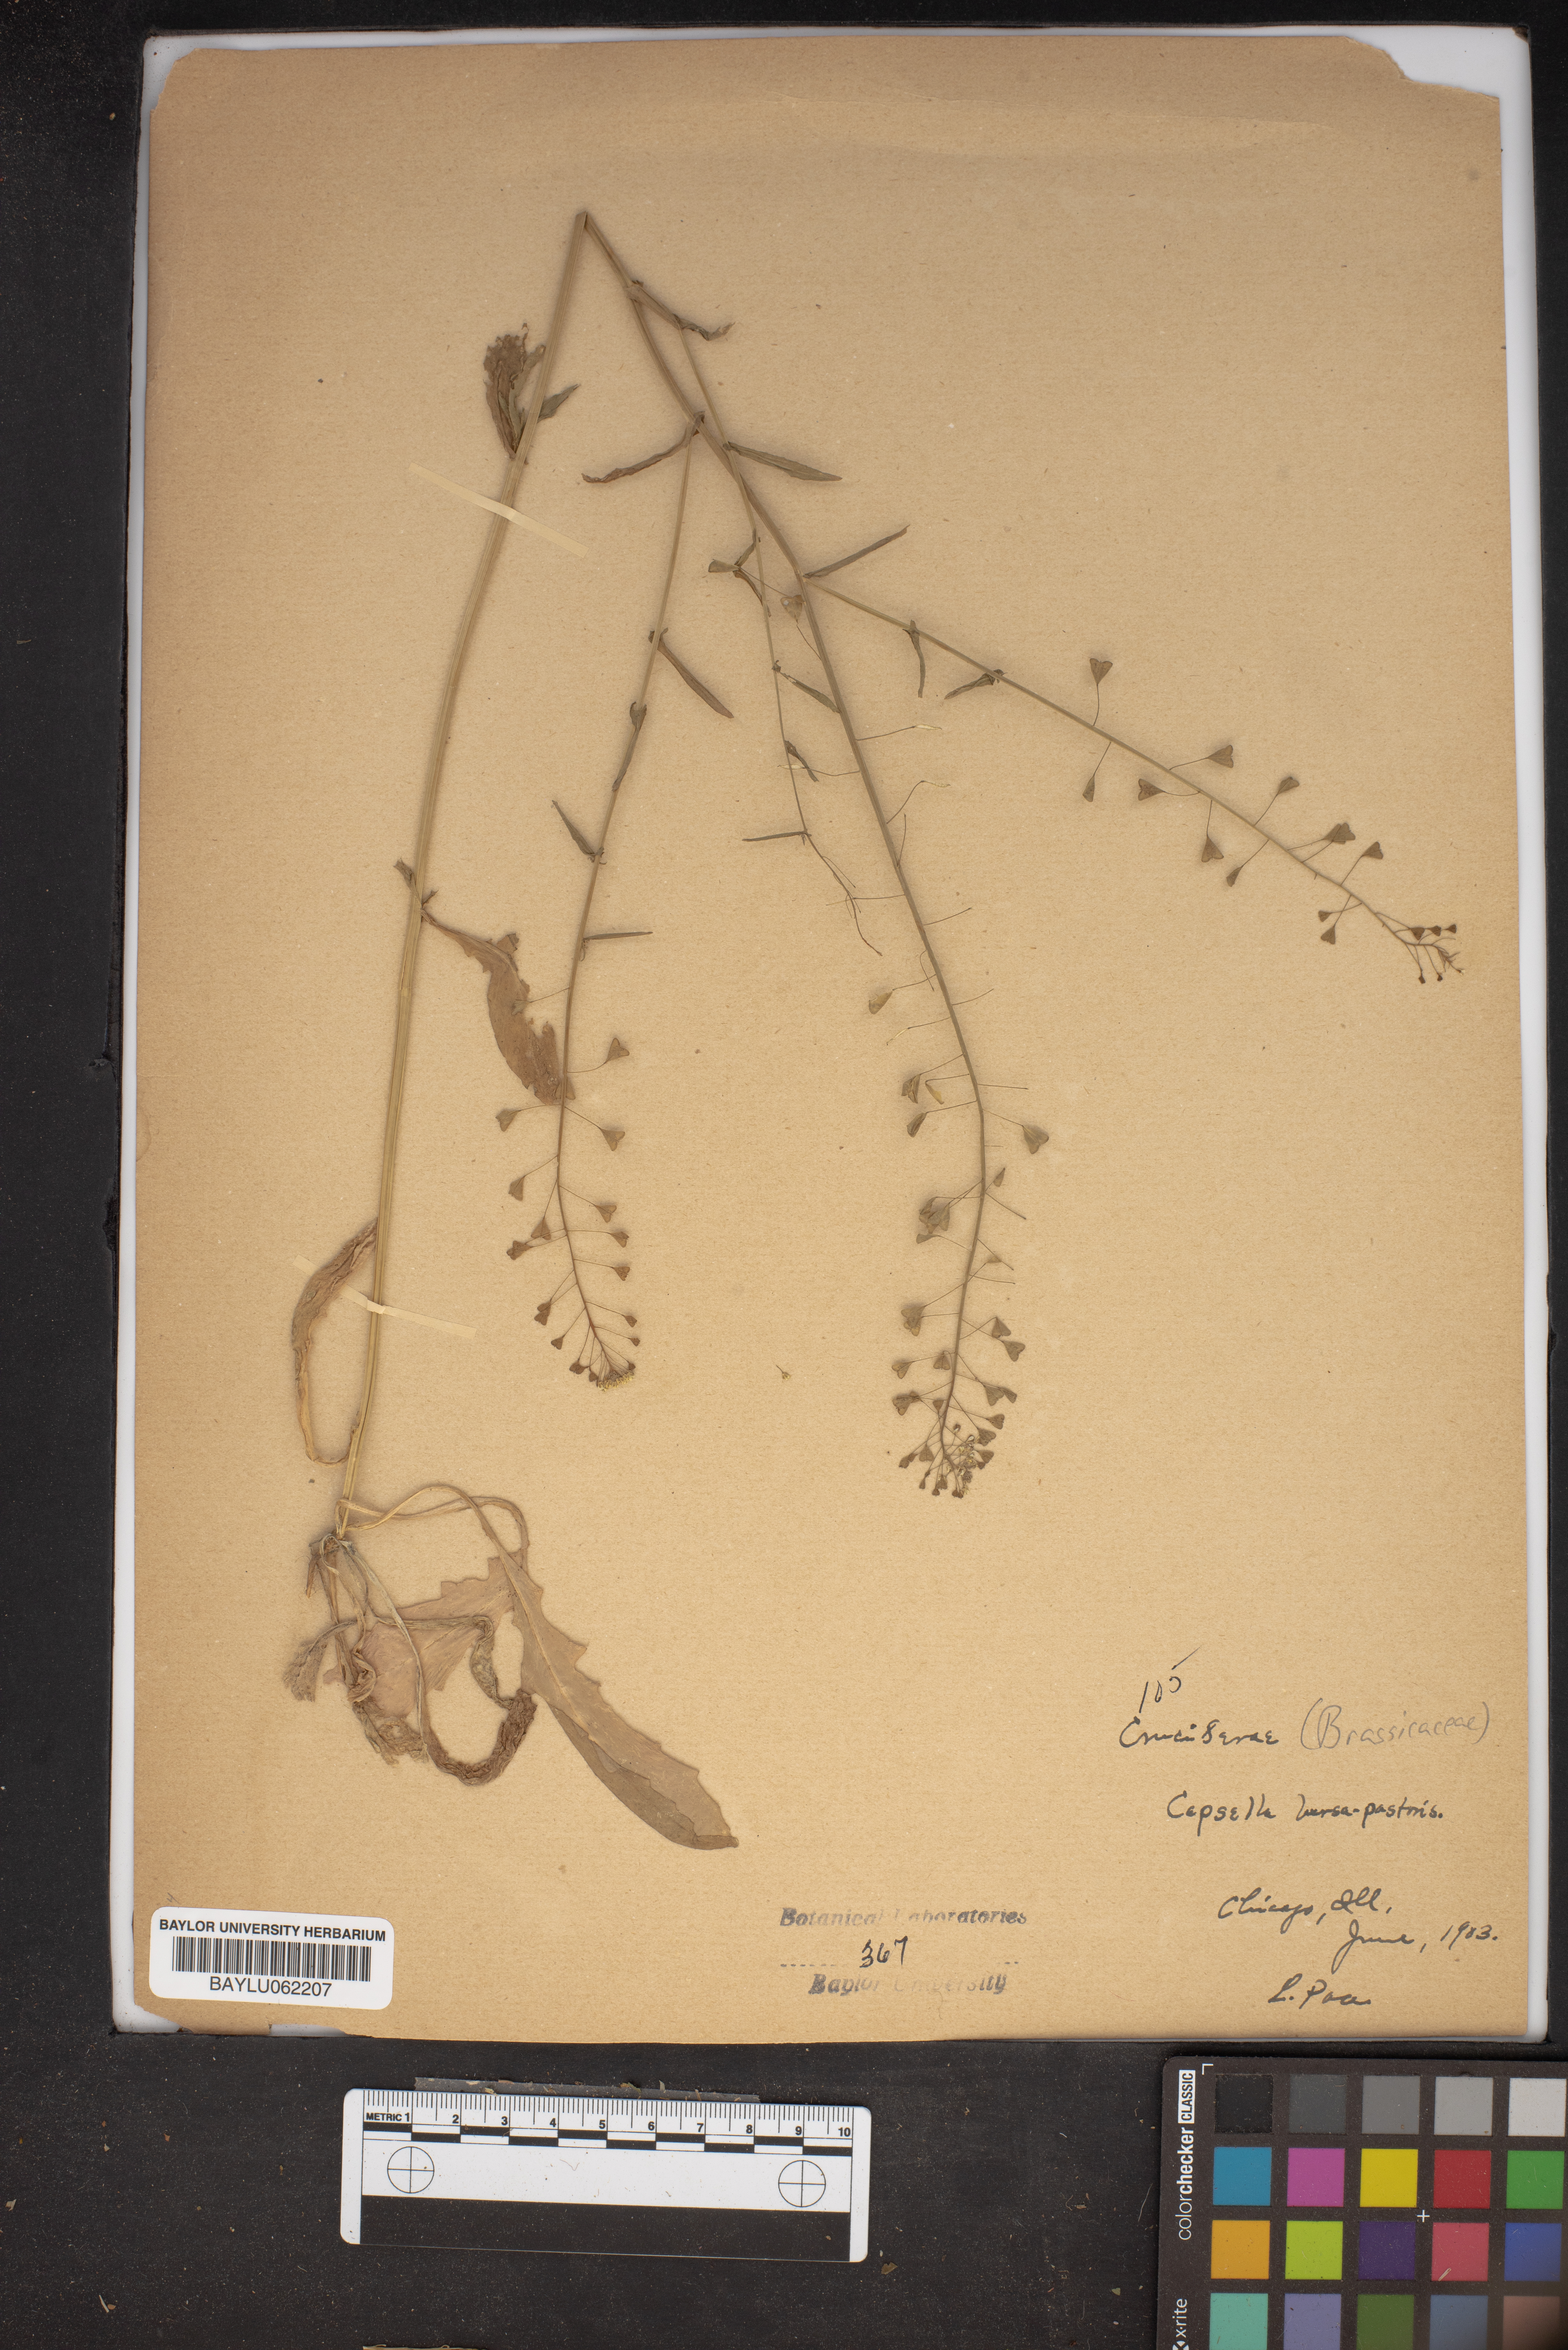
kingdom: Plantae
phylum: Tracheophyta
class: Magnoliopsida
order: Brassicales
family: Brassicaceae
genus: Capsella
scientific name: Capsella bursa-pastoris
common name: Shepherd's purse
